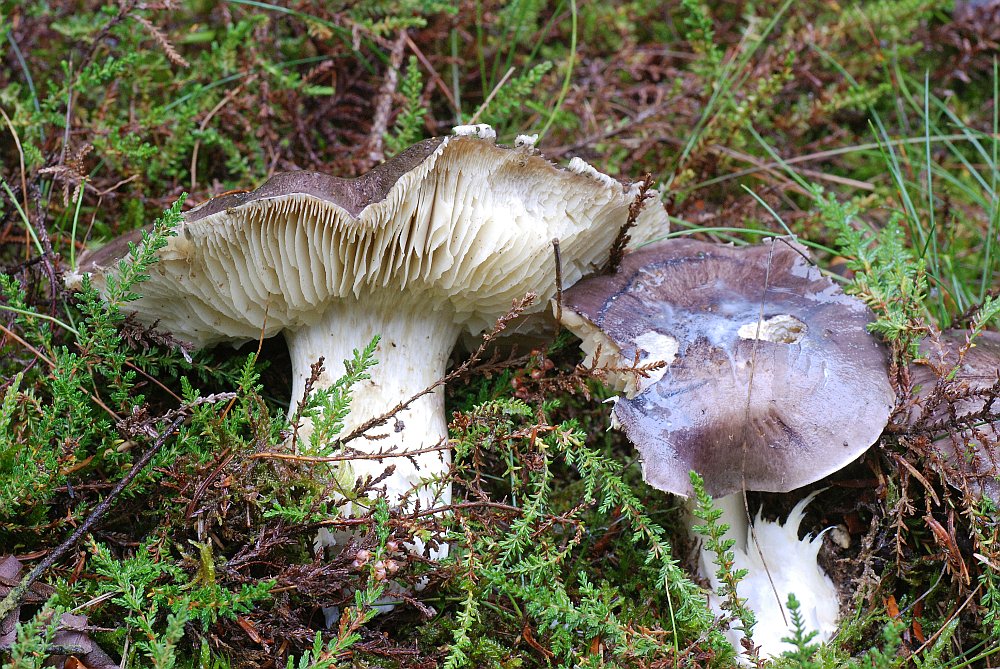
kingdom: Fungi
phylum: Basidiomycota
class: Agaricomycetes
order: Agaricales
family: Tricholomataceae
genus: Tricholoma
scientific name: Tricholoma portentosum
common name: grå ridderhat
